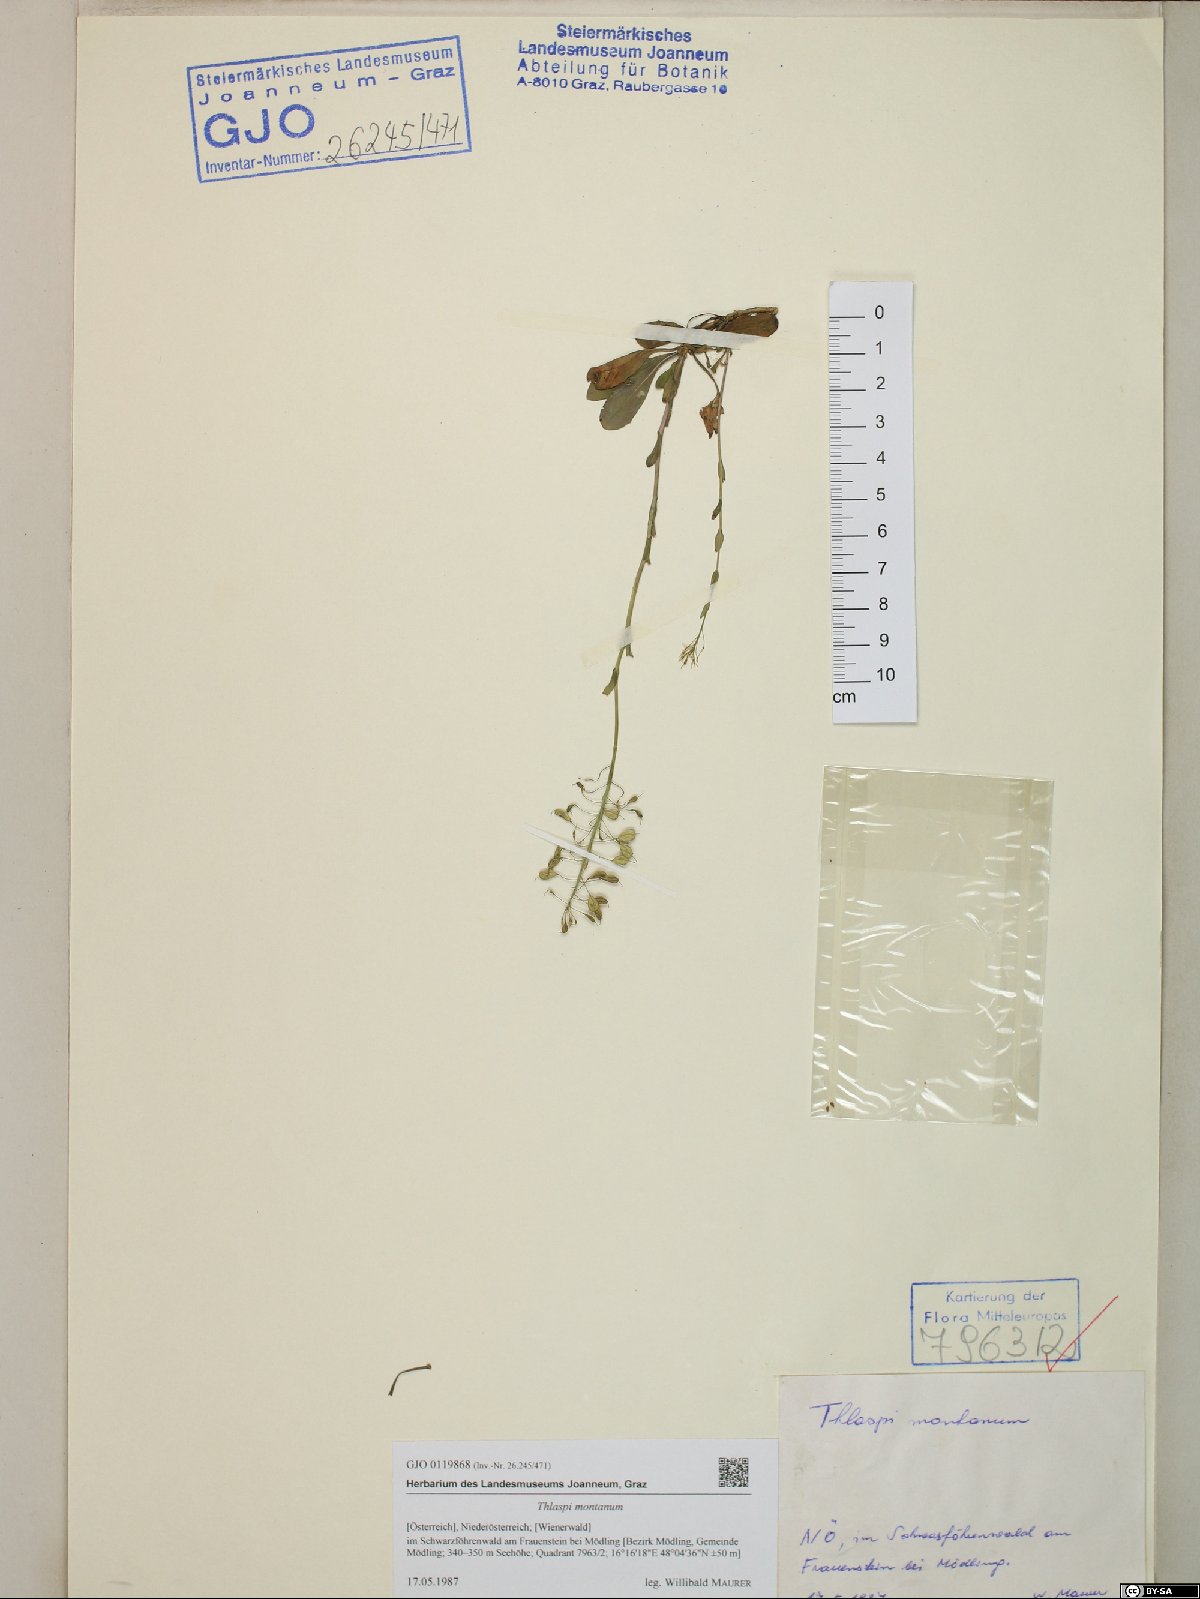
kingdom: Plantae
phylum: Tracheophyta
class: Magnoliopsida
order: Brassicales
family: Brassicaceae
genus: Noccaea
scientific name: Noccaea montana
